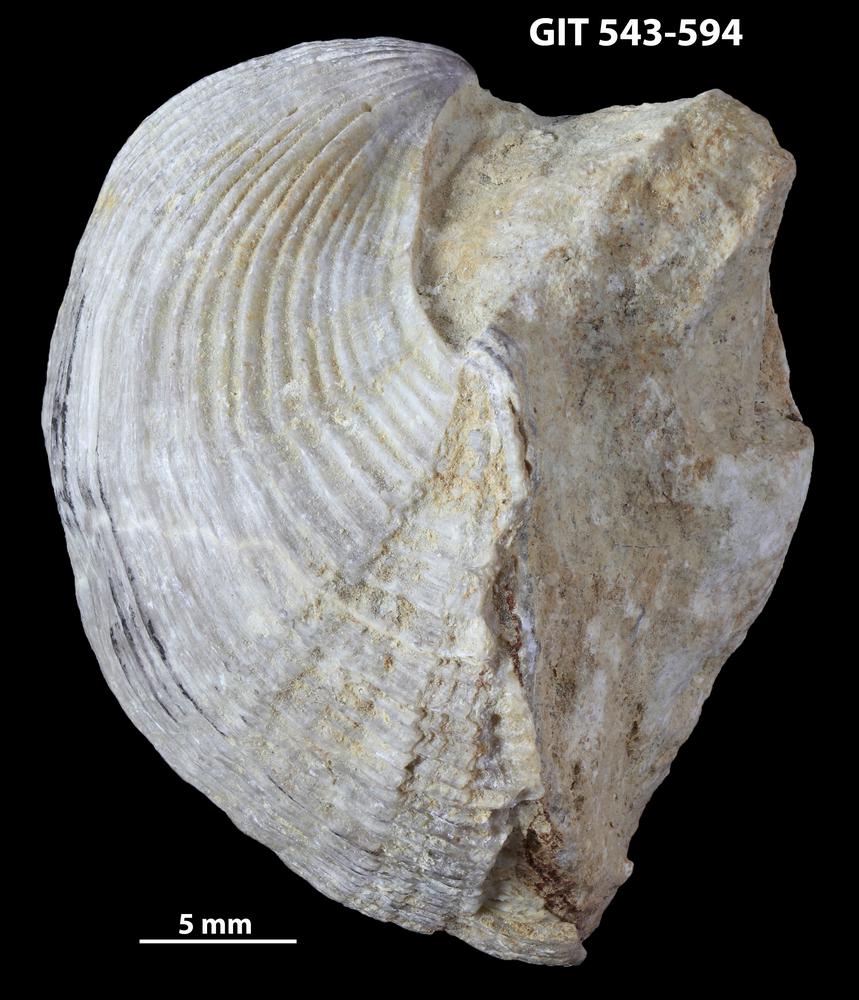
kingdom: Animalia
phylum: Brachiopoda
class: Rhynchonellata
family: Clitambonitidae
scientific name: Clitambonitidae
